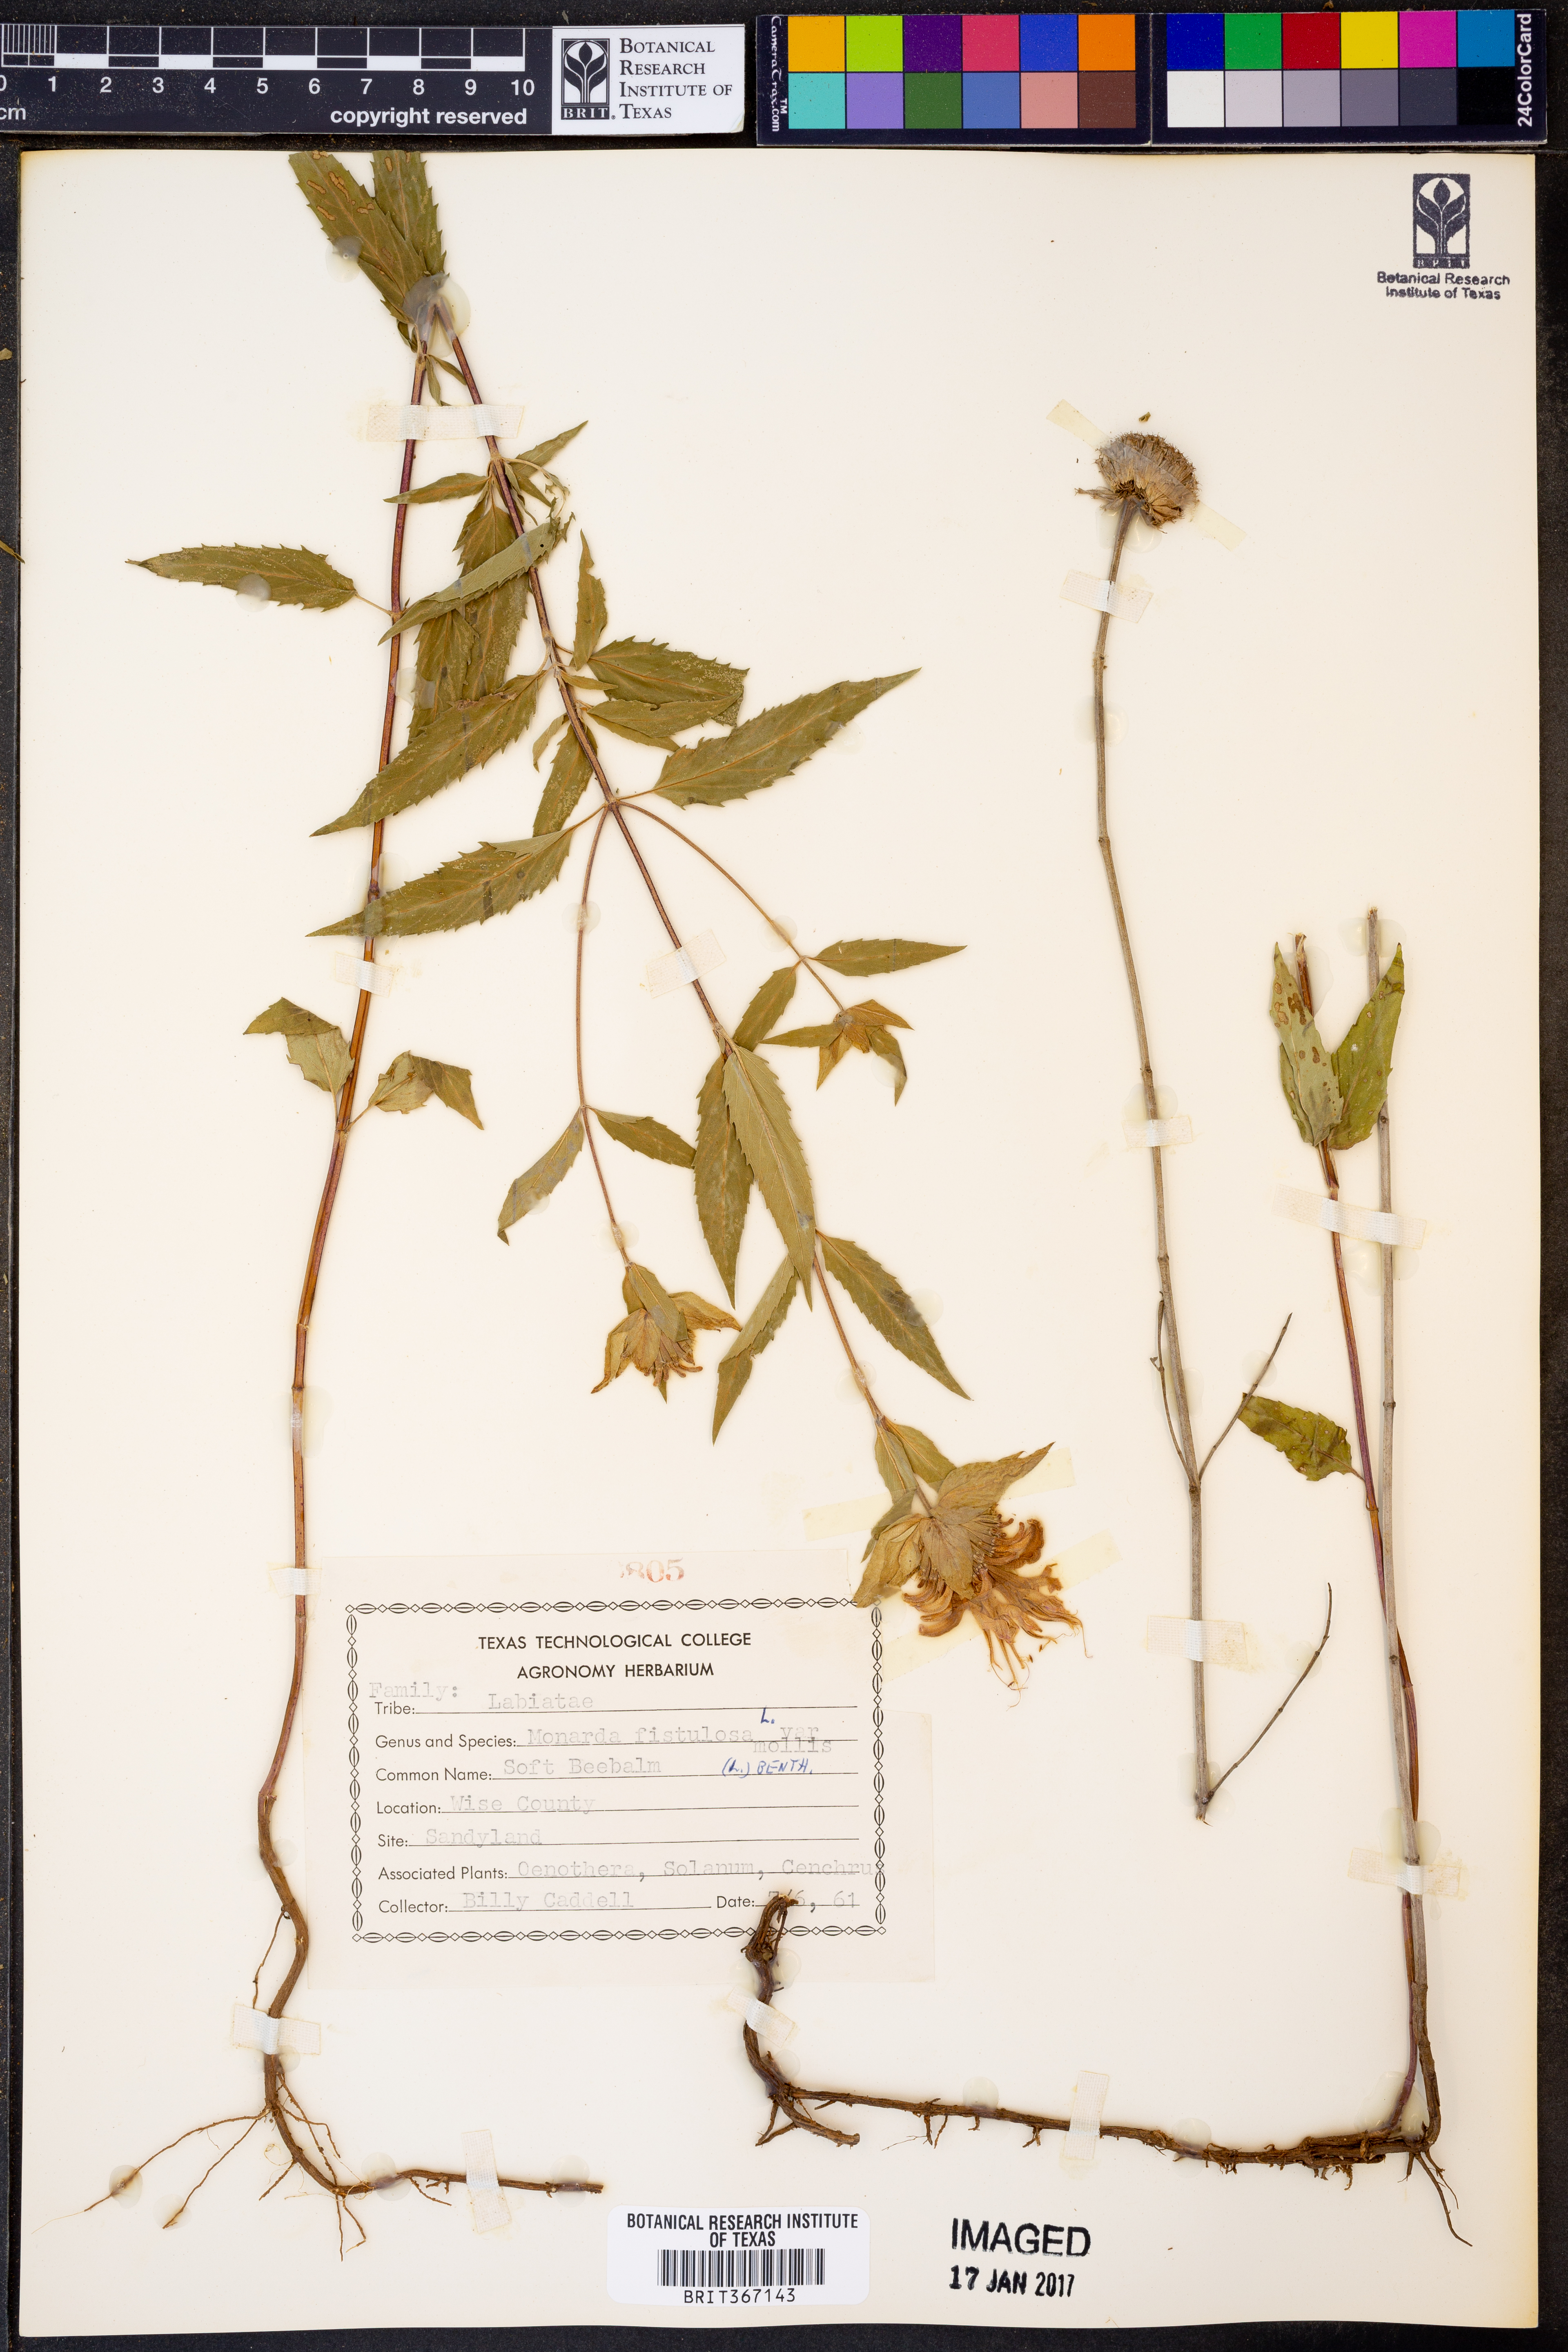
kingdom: Plantae
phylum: Tracheophyta
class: Magnoliopsida
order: Lamiales
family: Lamiaceae
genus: Monarda
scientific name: Monarda fistulosa
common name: Purple beebalm
